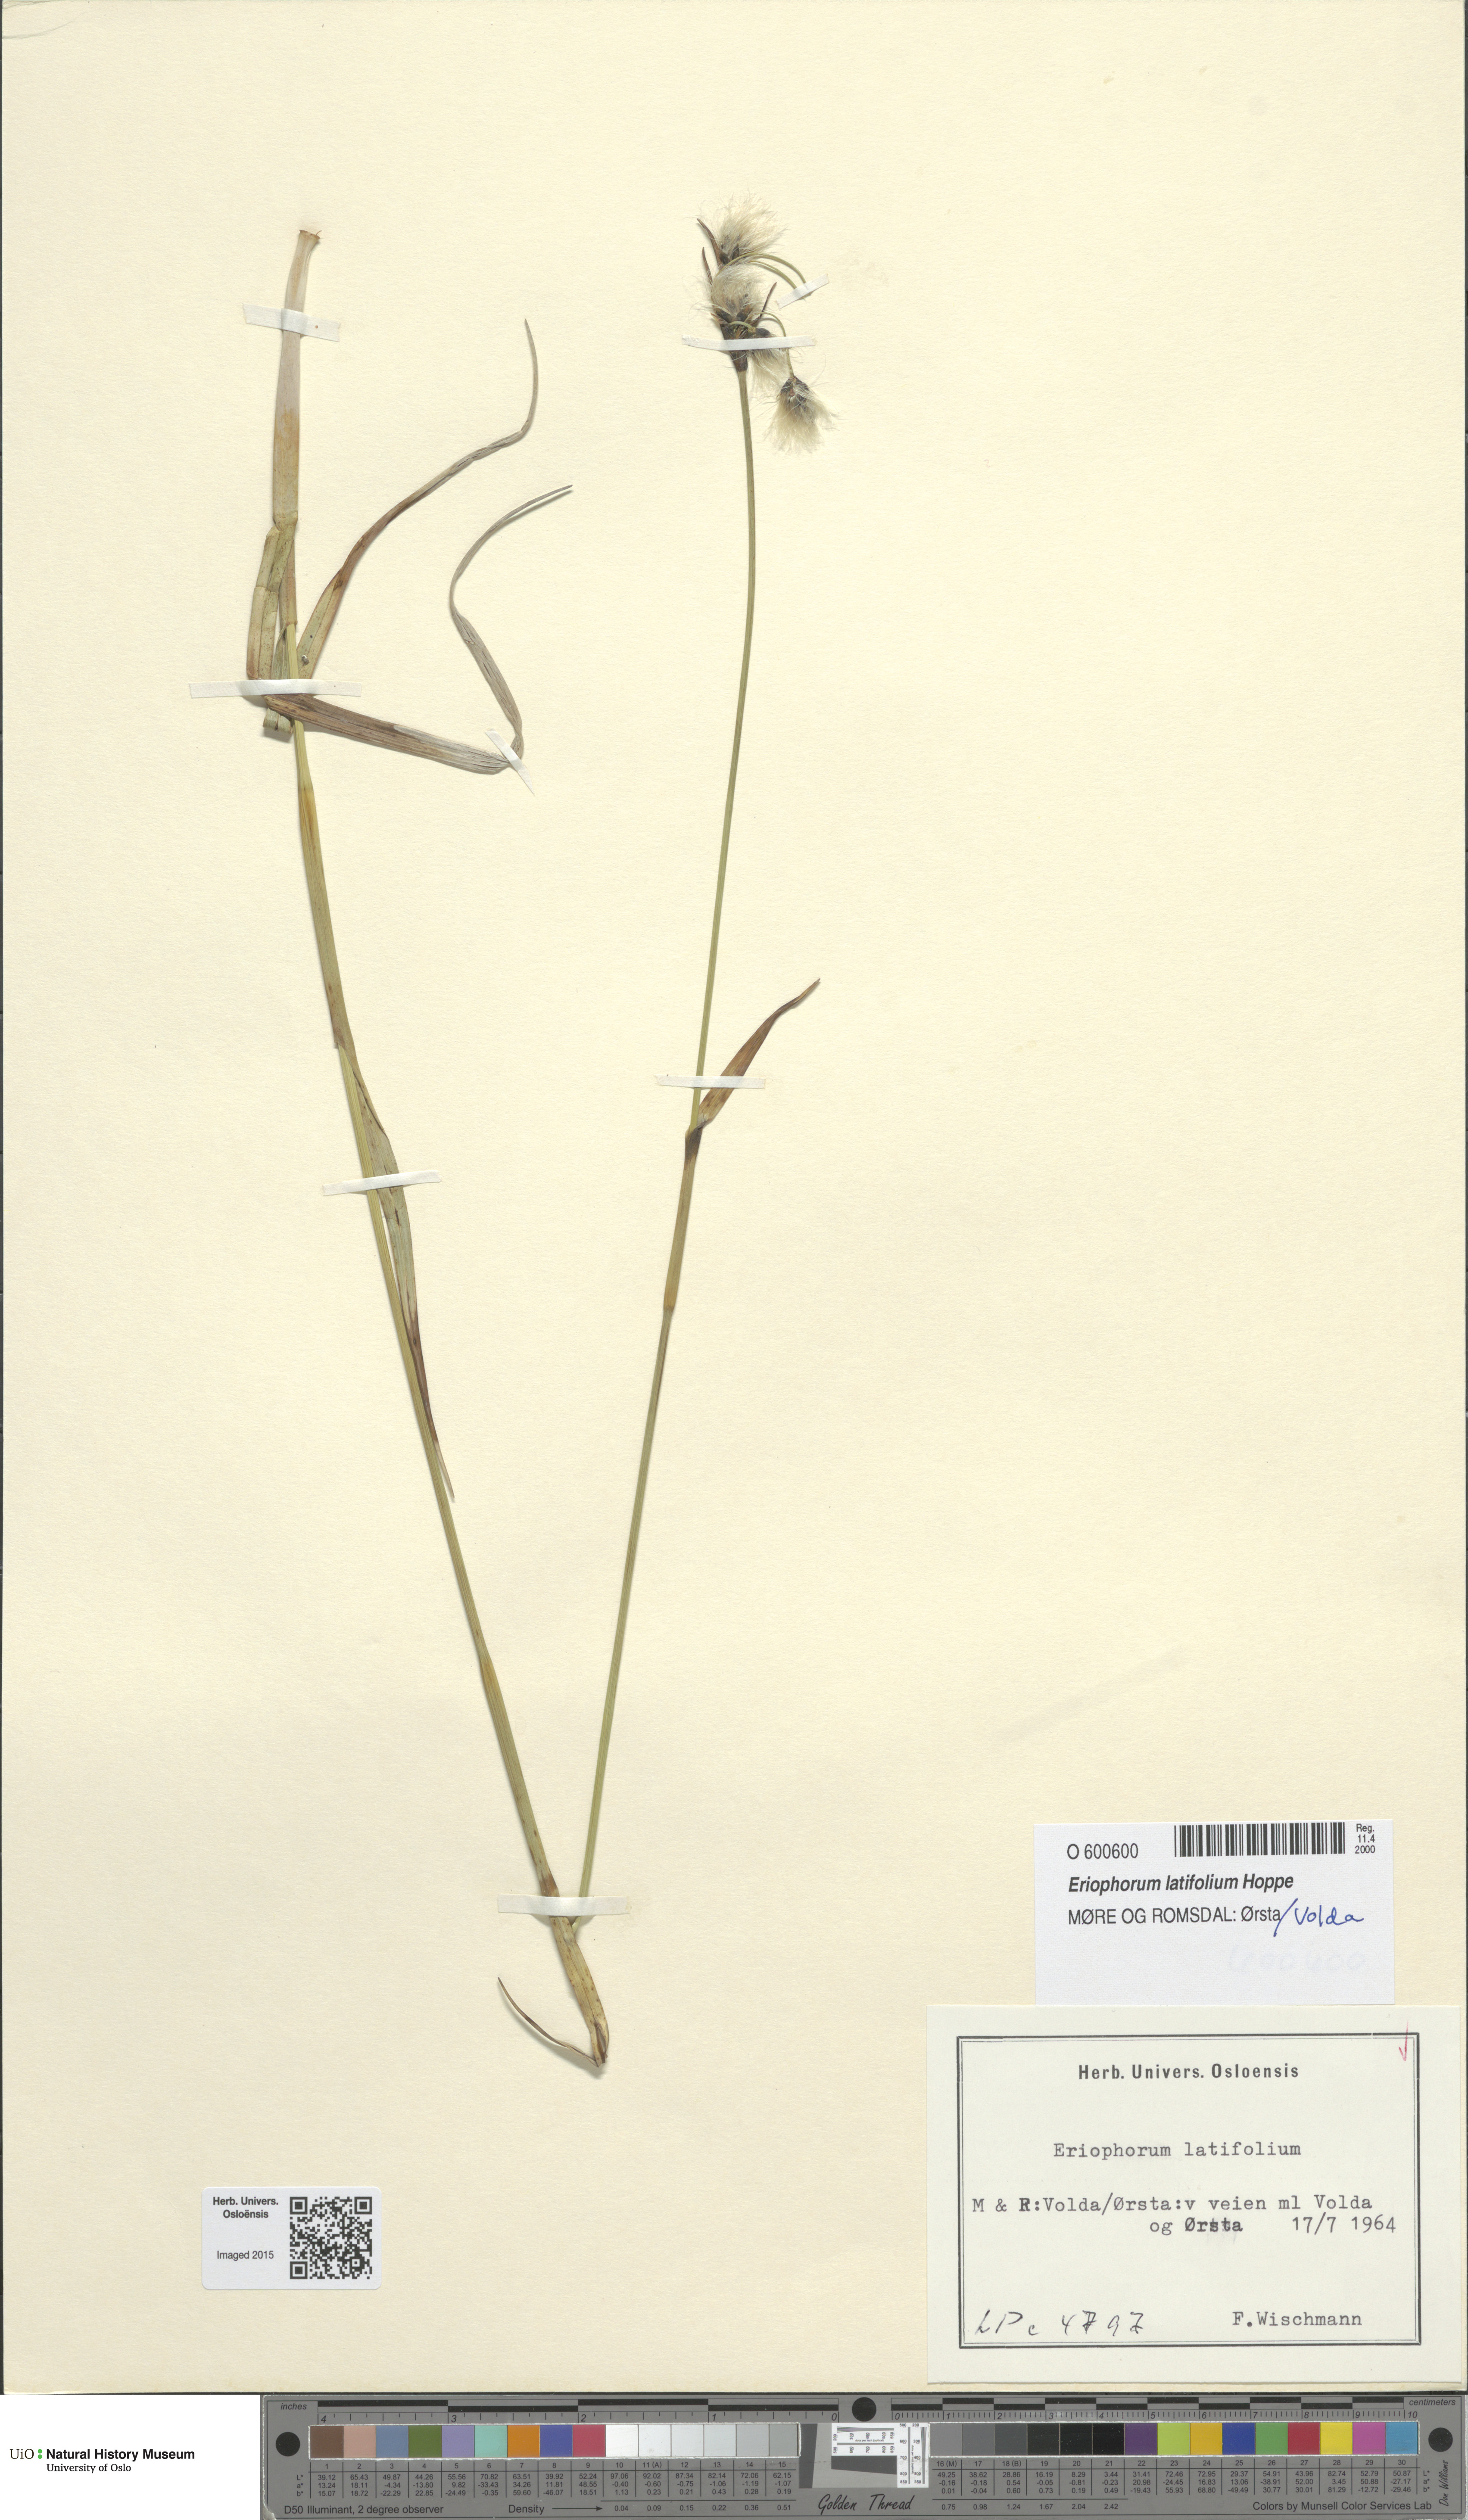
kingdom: Plantae
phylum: Tracheophyta
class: Liliopsida
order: Poales
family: Cyperaceae
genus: Eriophorum
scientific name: Eriophorum latifolium
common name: Broad-leaved cottongrass
